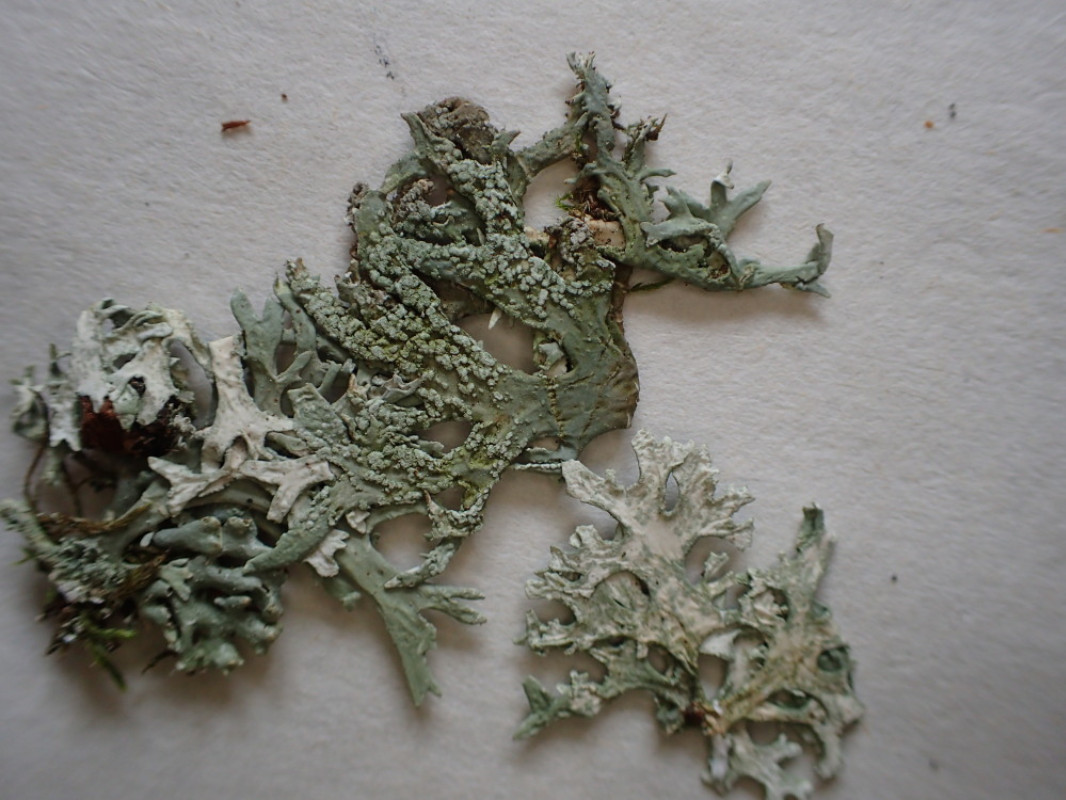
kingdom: Fungi
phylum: Ascomycota
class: Lecanoromycetes
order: Lecanorales
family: Parmeliaceae
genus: Evernia
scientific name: Evernia prunastri
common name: almindelig slåenlav
